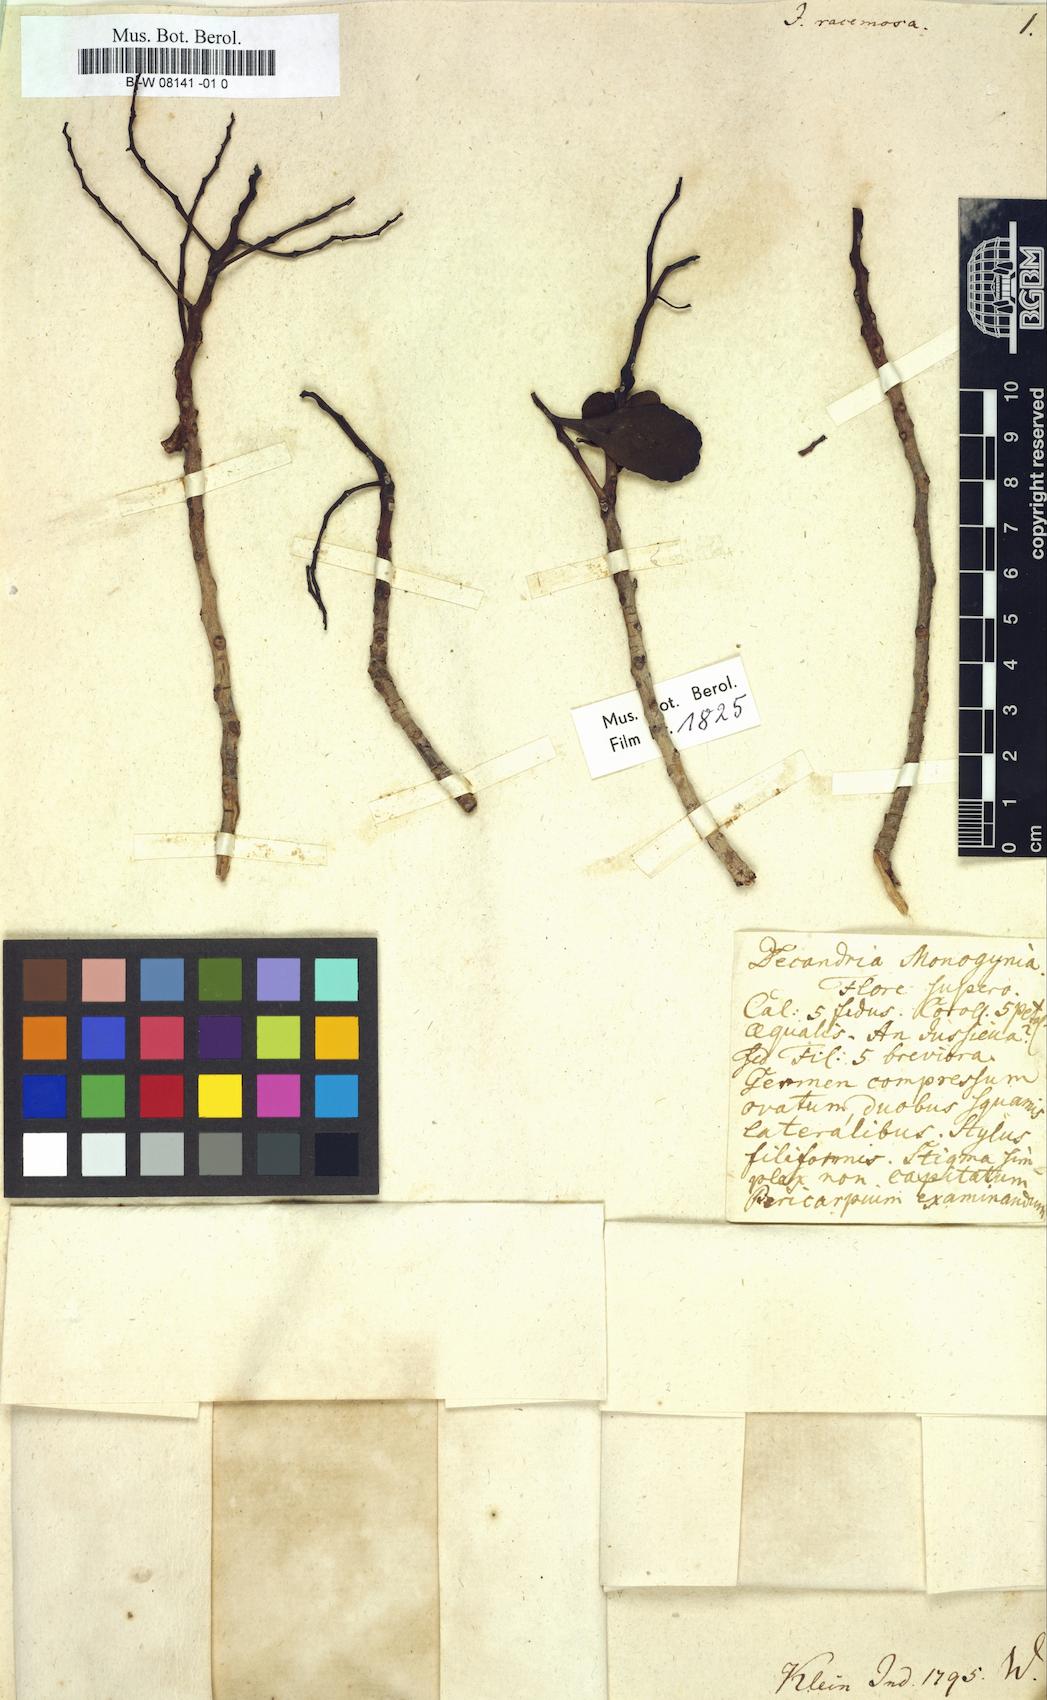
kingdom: Plantae
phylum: Tracheophyta
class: Magnoliopsida
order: Myrtales
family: Onagraceae
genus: Ludwigia
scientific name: Ludwigia
